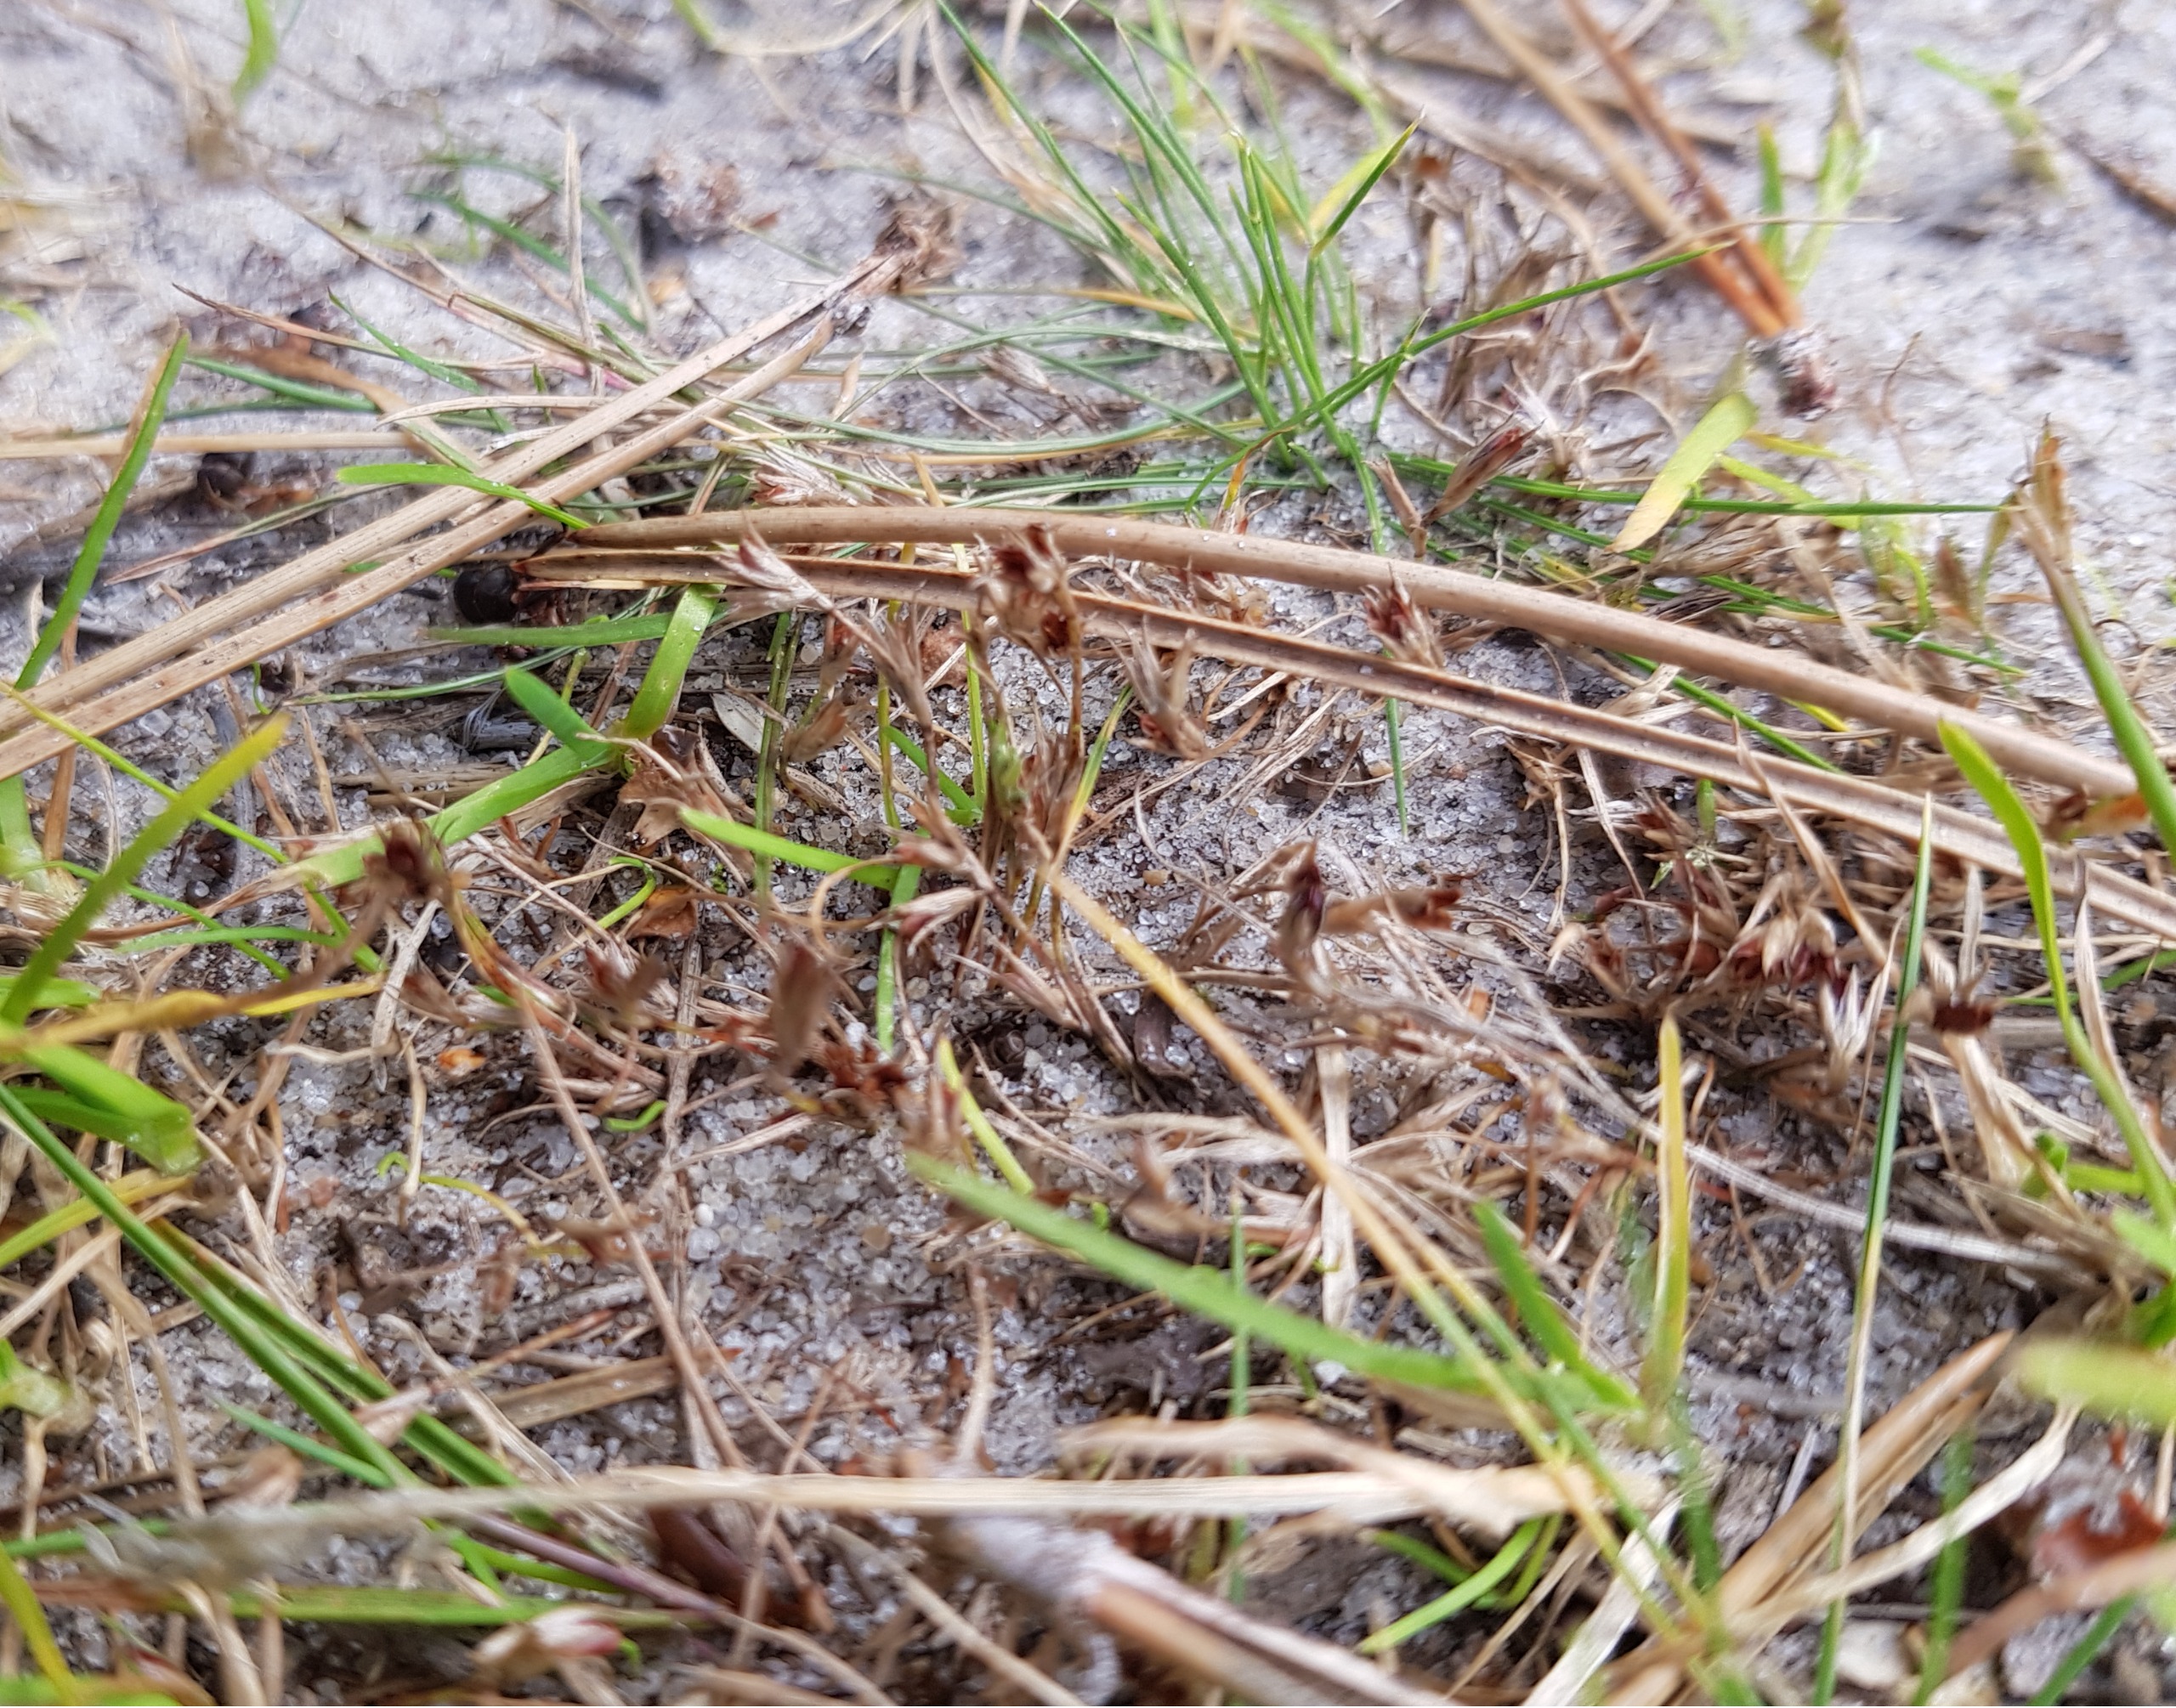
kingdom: Plantae
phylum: Tracheophyta
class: Liliopsida
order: Poales
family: Juncaceae
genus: Juncus
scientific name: Juncus minutulus
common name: Småblomstret siv
